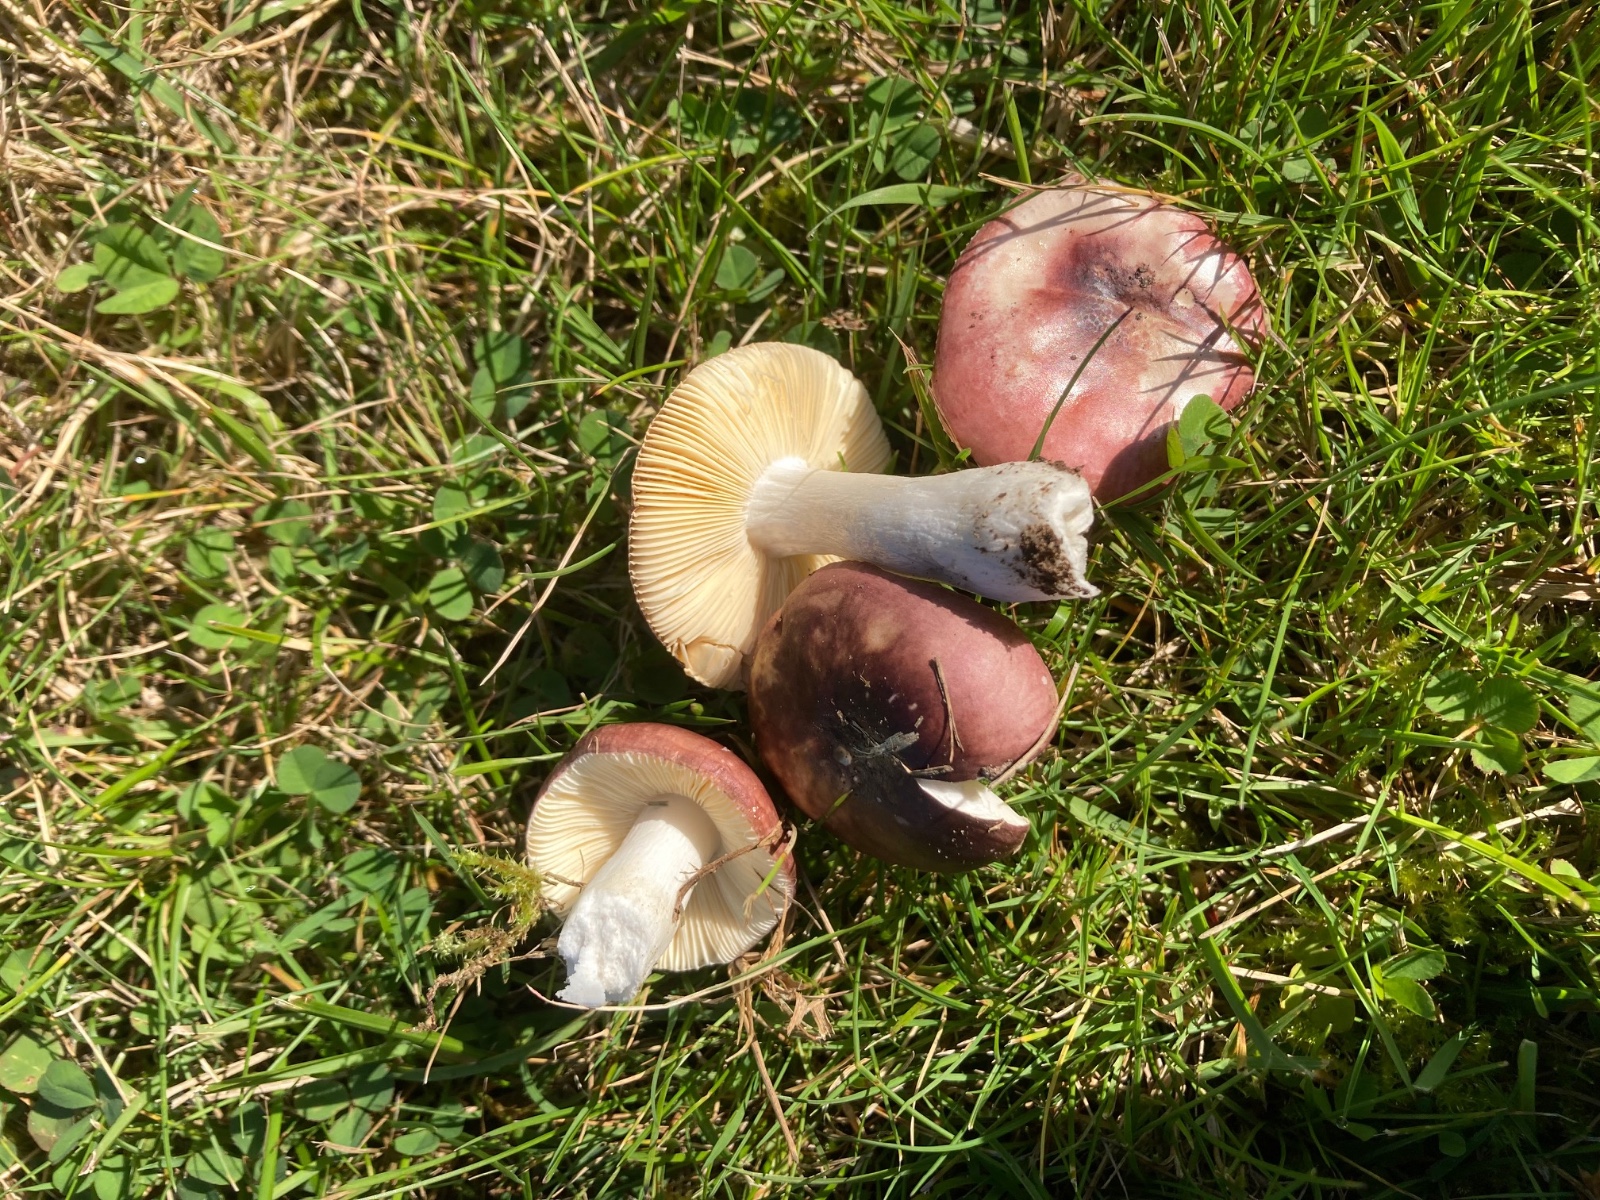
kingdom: Fungi
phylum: Basidiomycota
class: Agaricomycetes
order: Russulales
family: Russulaceae
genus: Russula
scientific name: Russula cessans
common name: fyrre-skørhat
